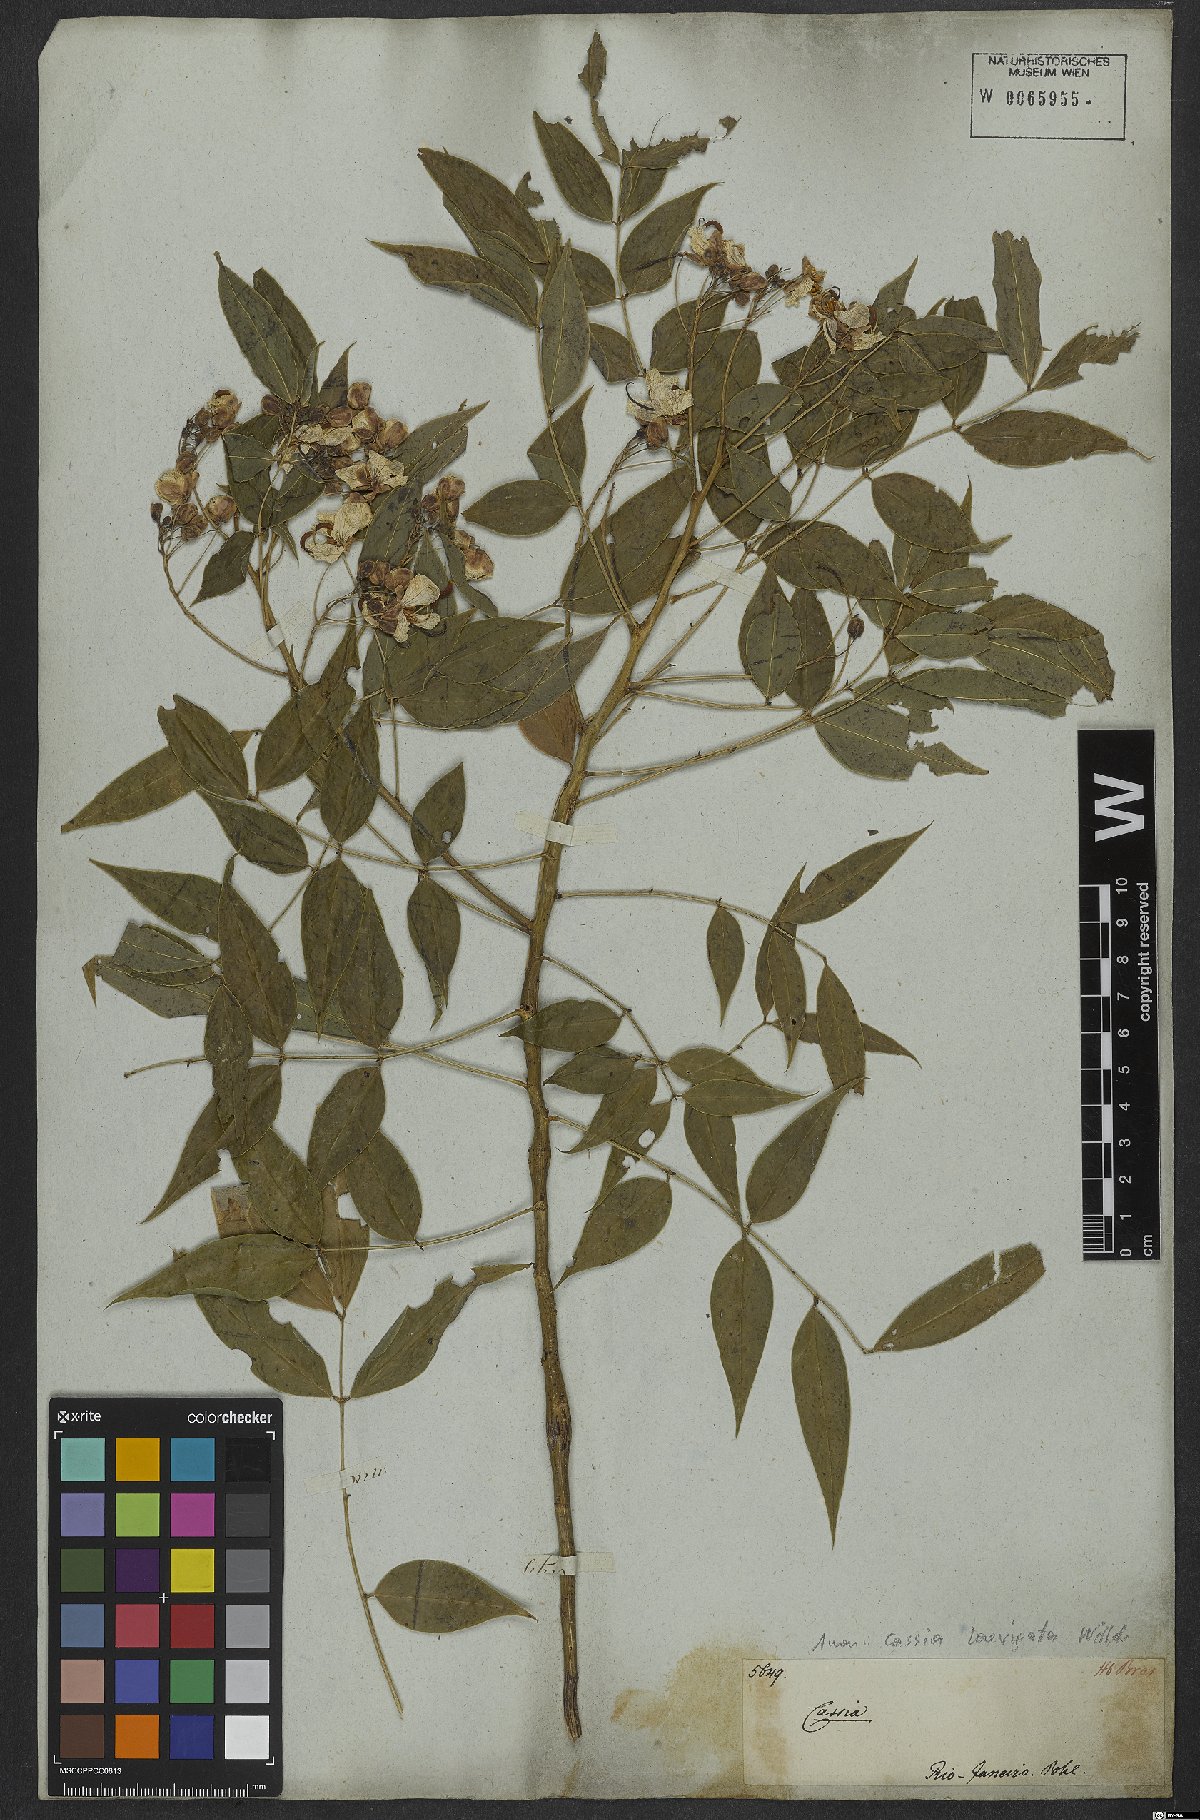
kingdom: Plantae
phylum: Tracheophyta
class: Magnoliopsida
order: Fabales
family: Fabaceae
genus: Senna
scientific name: Senna septemtrionalis
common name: Arsenic bush
